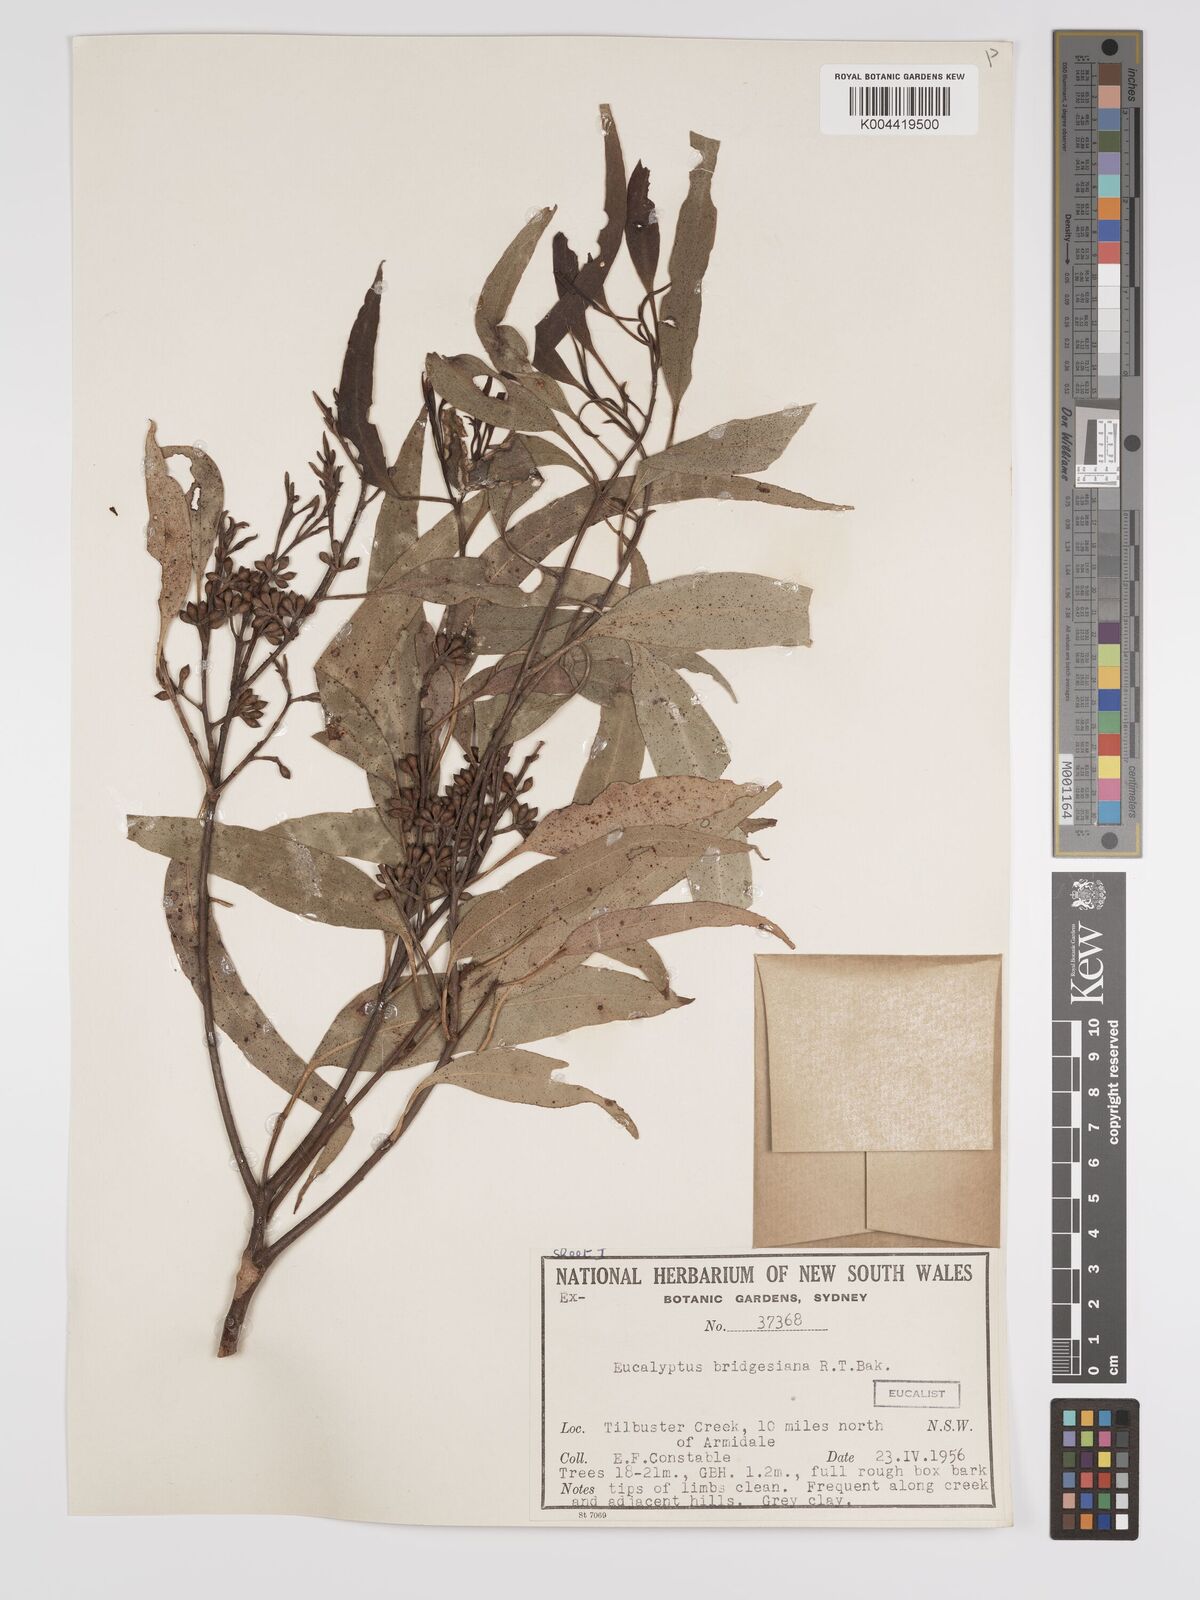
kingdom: Plantae
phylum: Tracheophyta
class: Magnoliopsida
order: Myrtales
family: Myrtaceae
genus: Eucalyptus
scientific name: Eucalyptus bridgesiana
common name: Applebox
